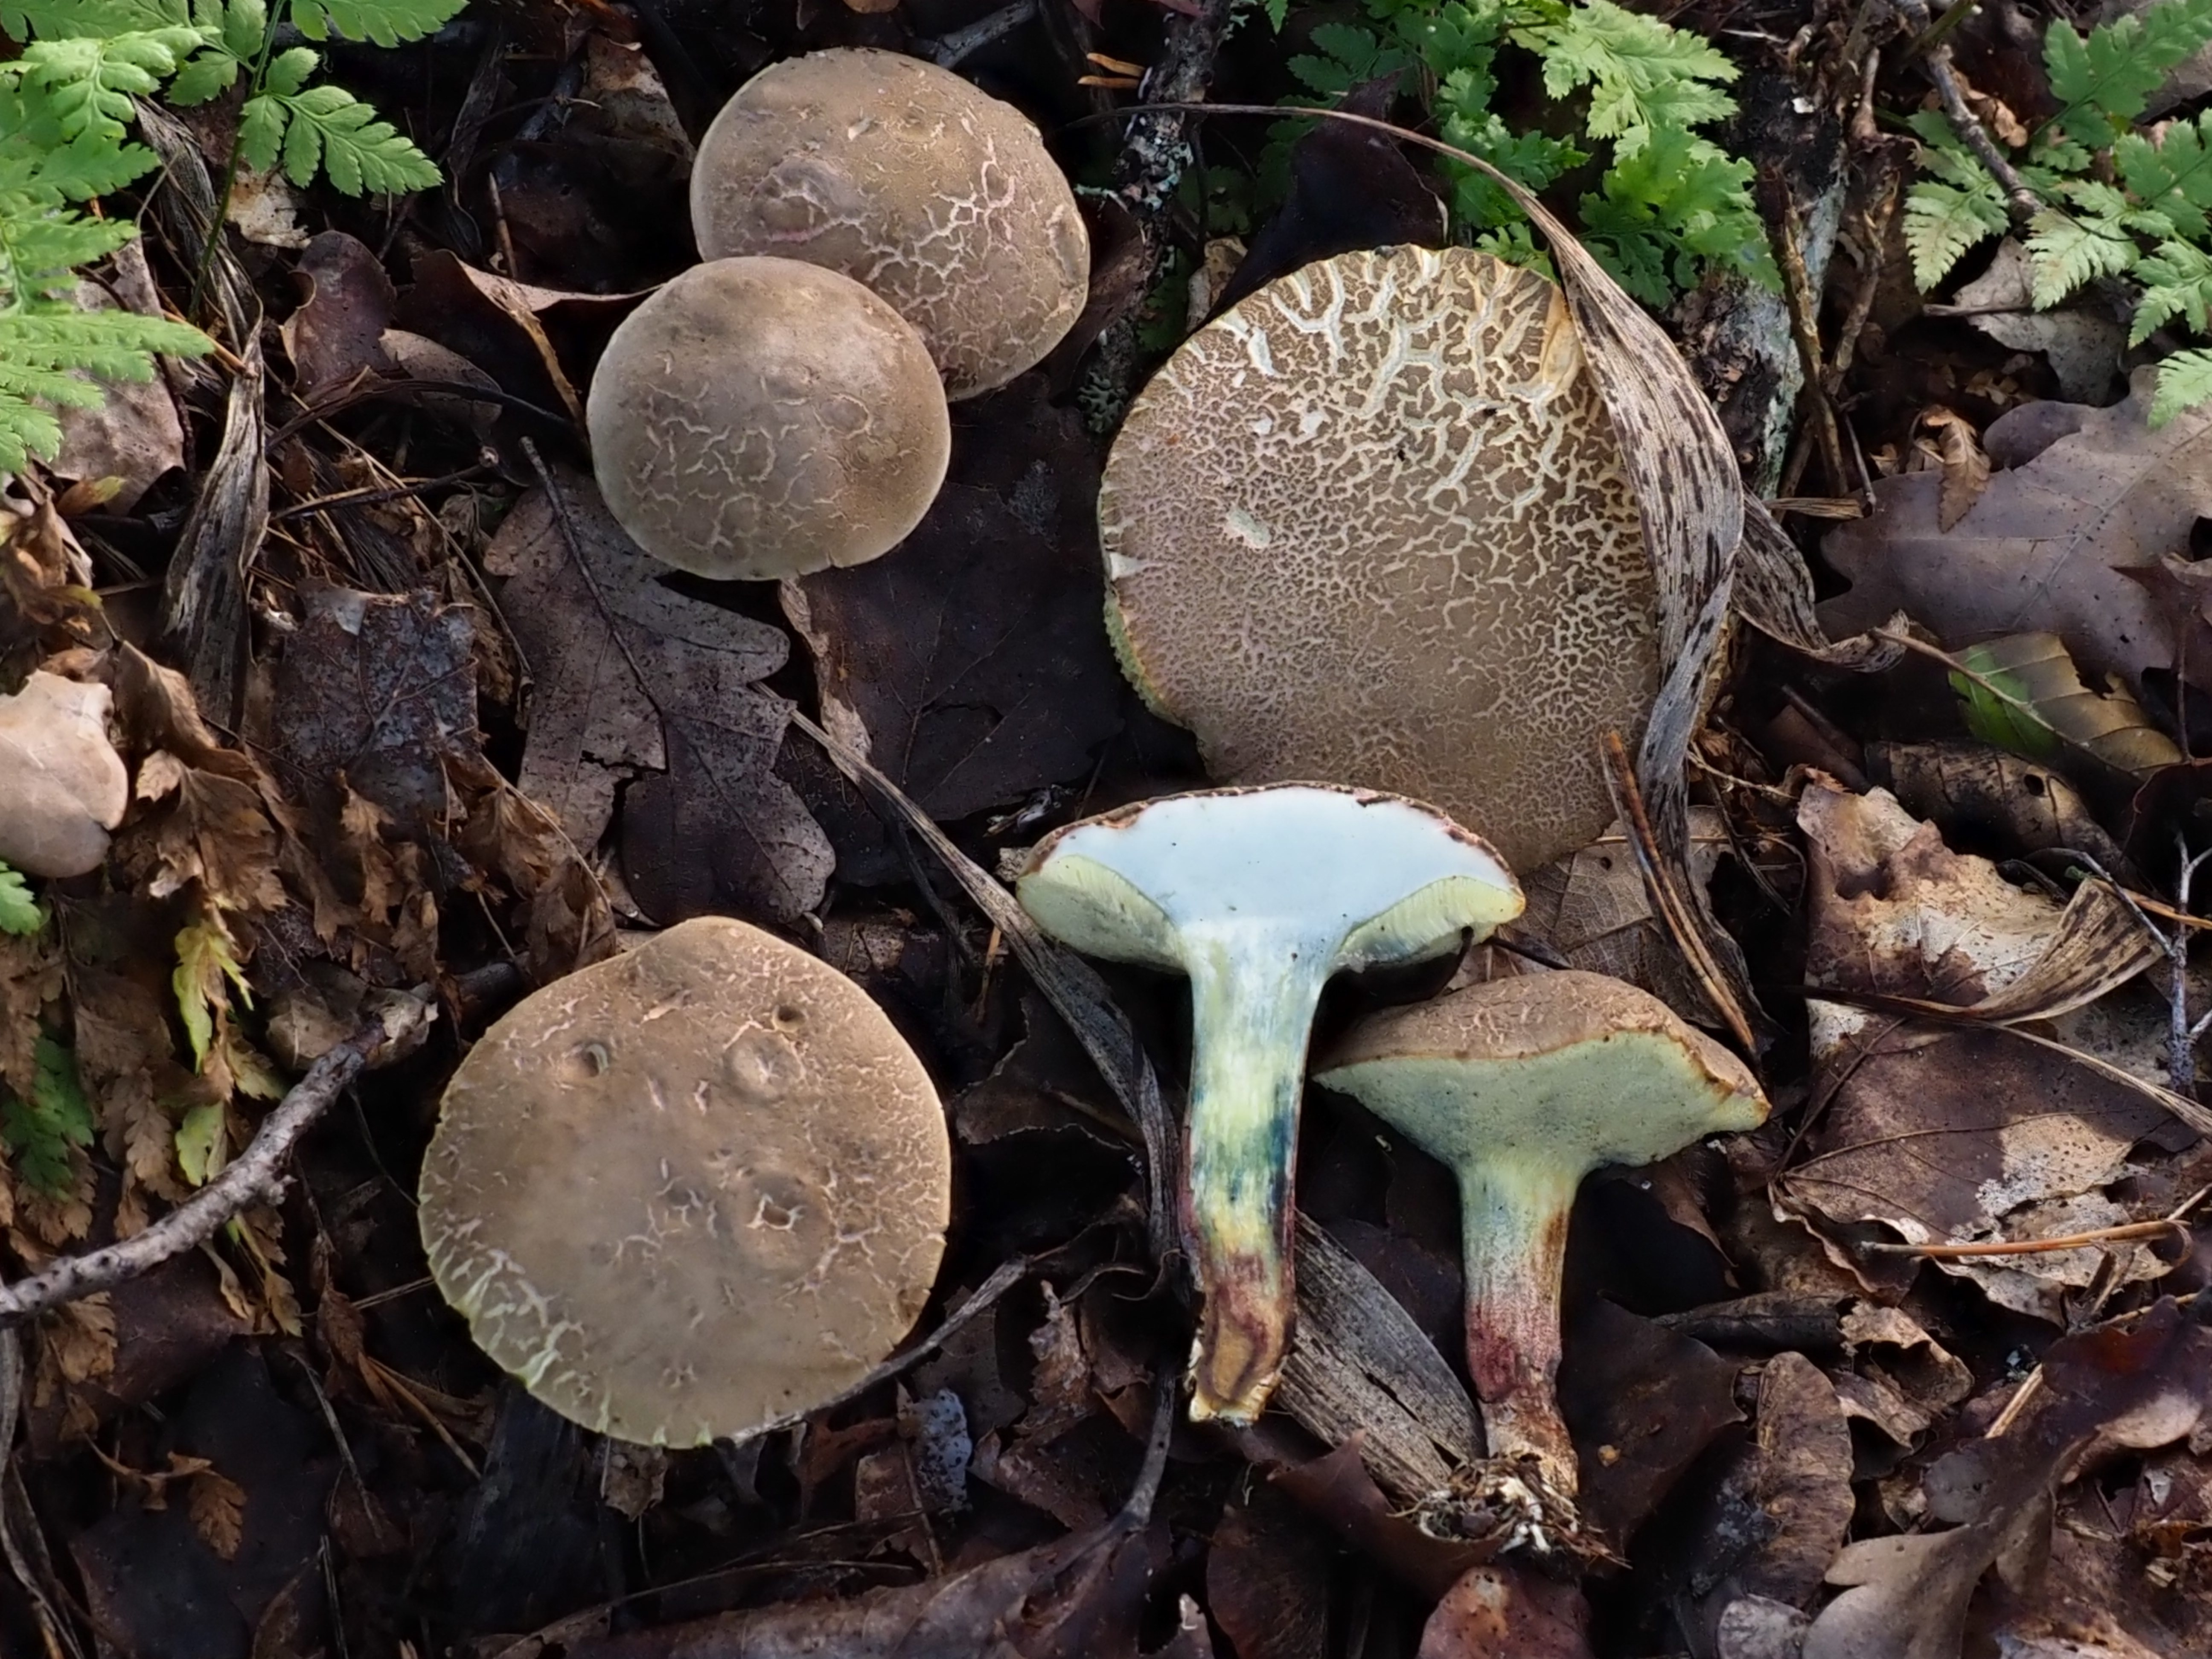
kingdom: Fungi
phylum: Basidiomycota
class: Agaricomycetes
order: Boletales
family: Boletaceae
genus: Xerocomellus
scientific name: Xerocomellus cisalpinus
